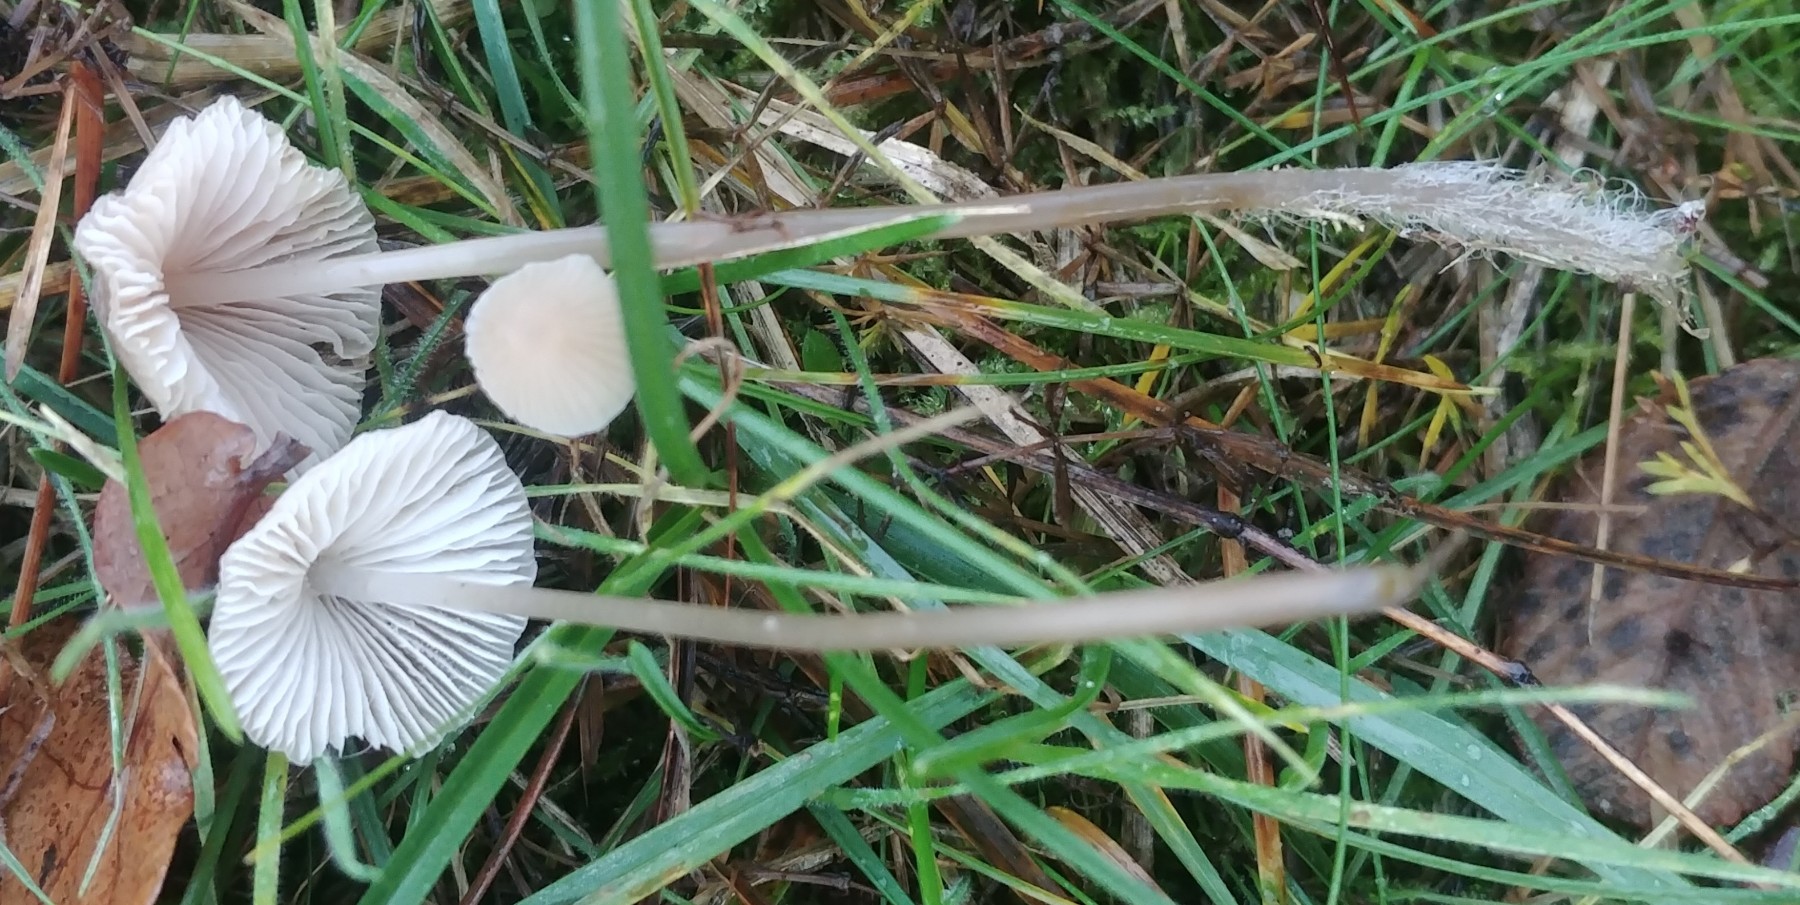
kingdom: Fungi
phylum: Basidiomycota
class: Agaricomycetes
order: Agaricales
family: Mycenaceae
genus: Mycena
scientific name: Mycena
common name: huesvamp
